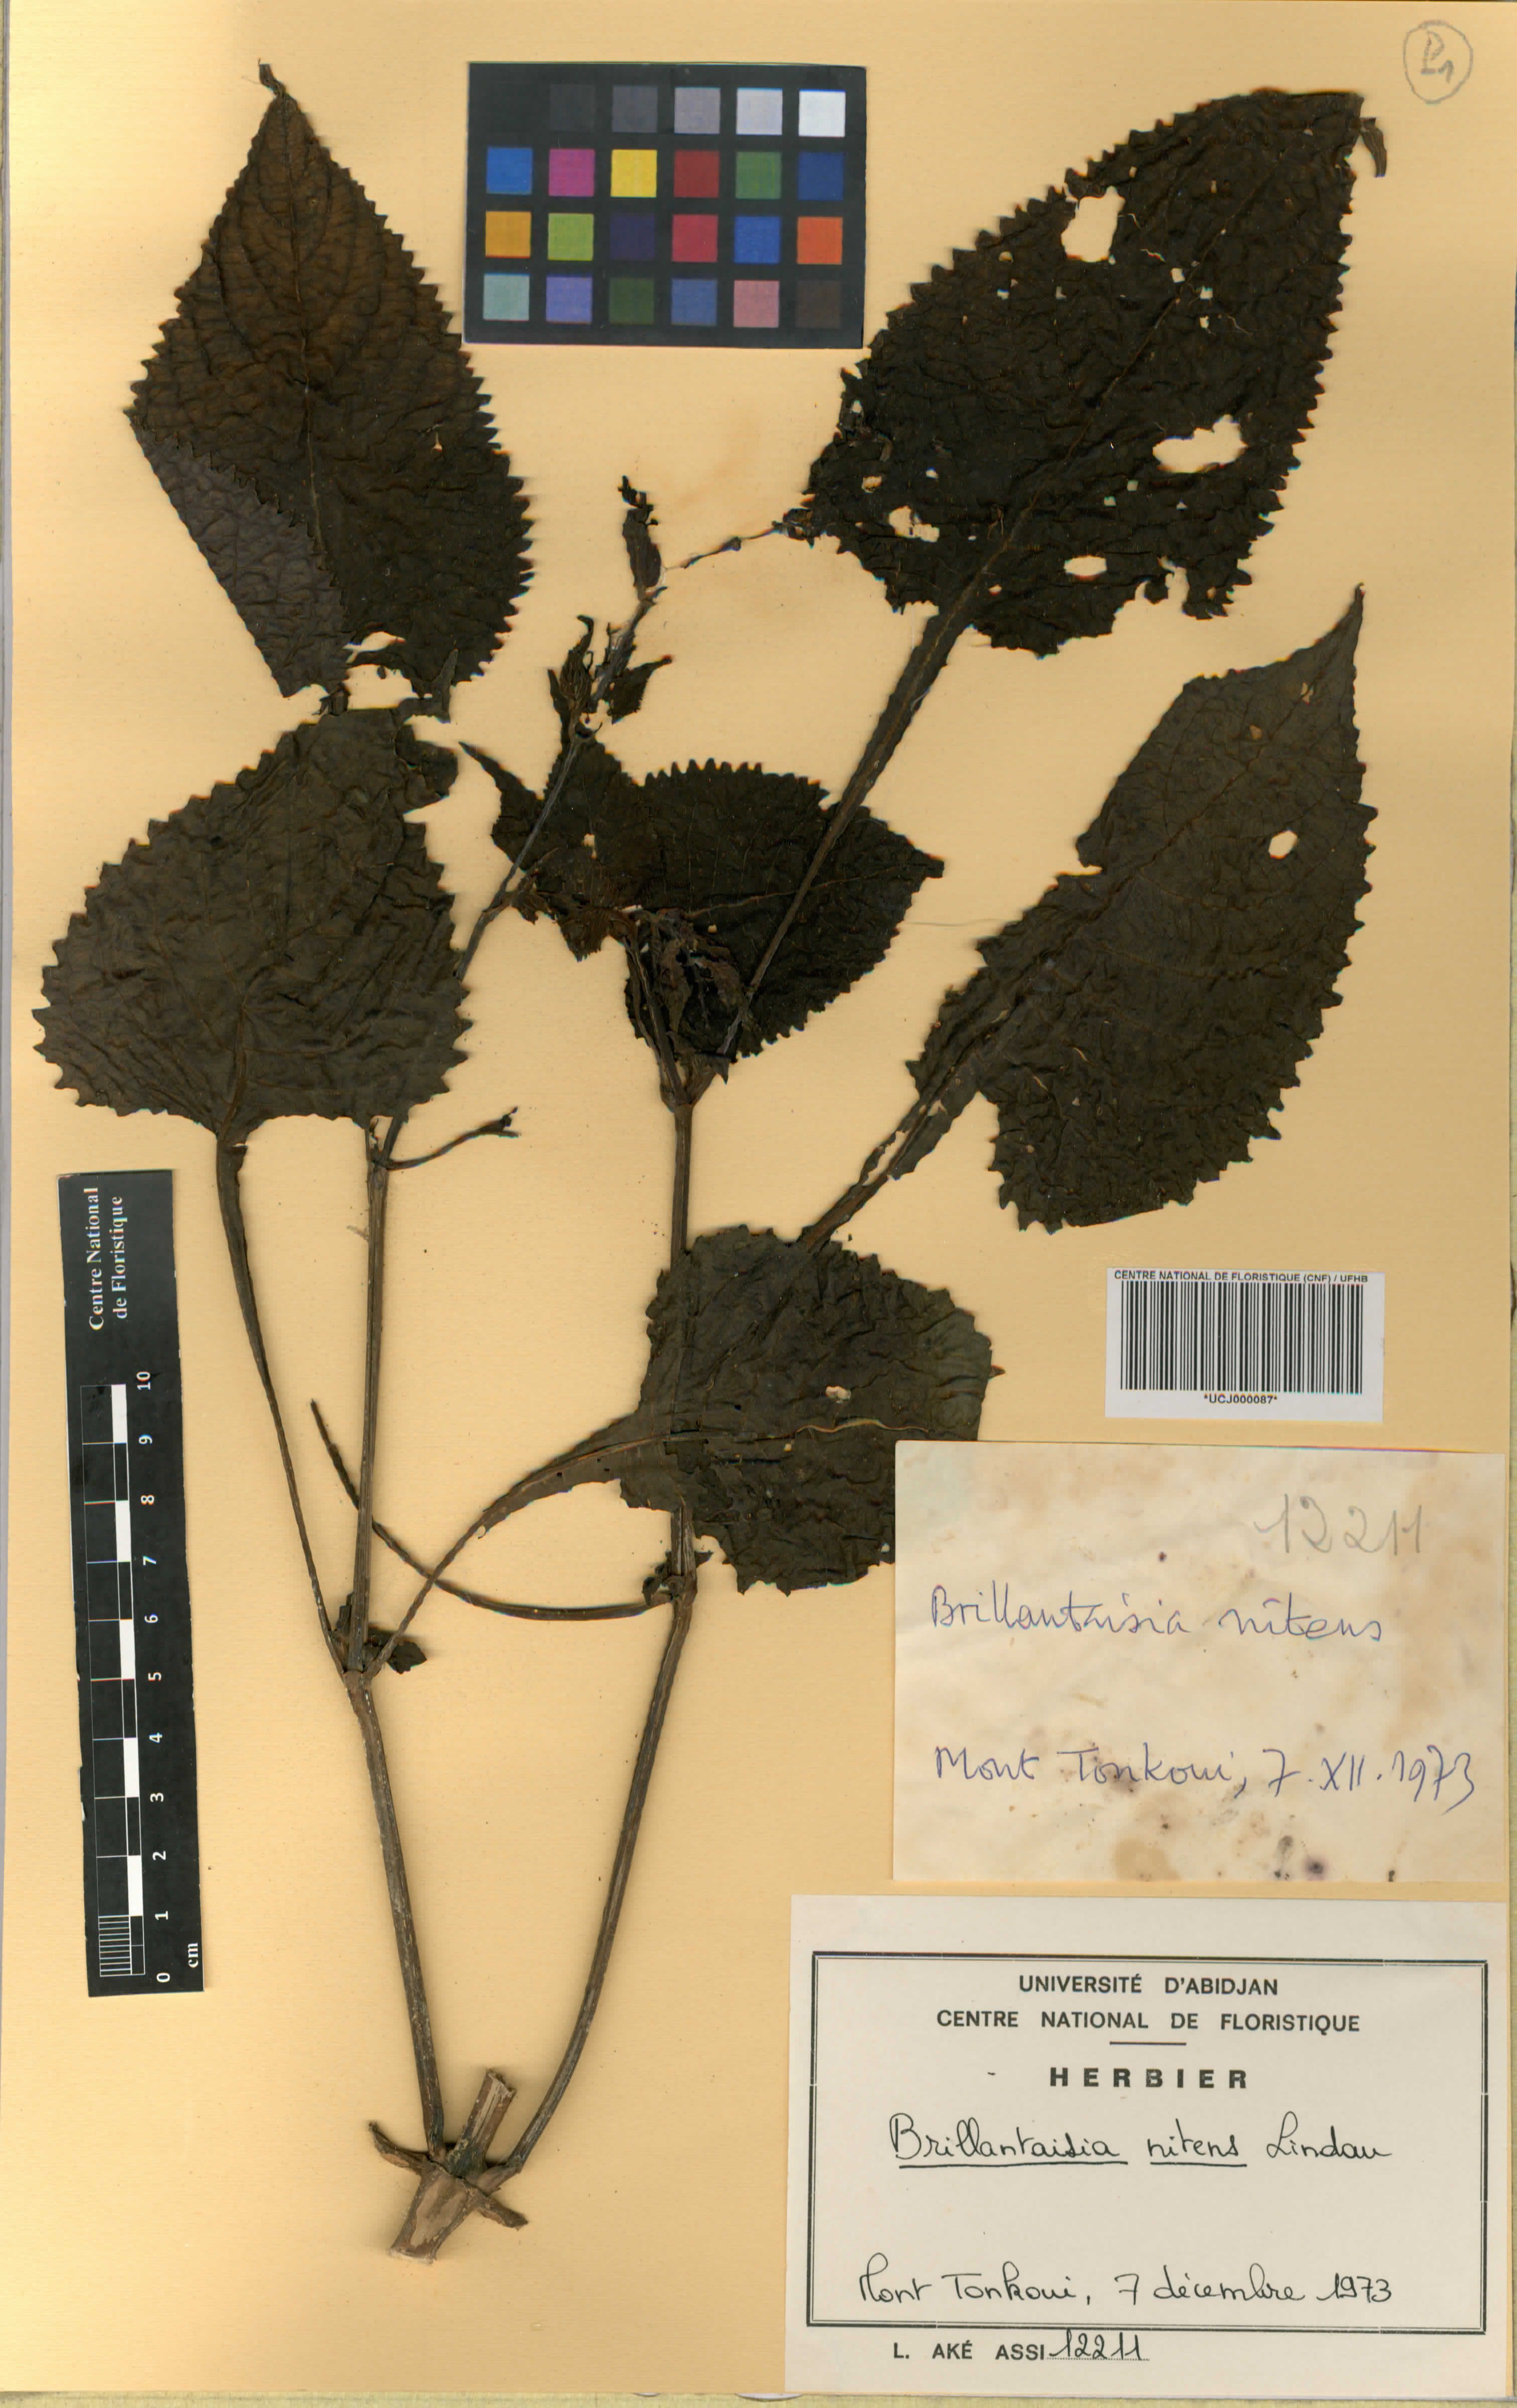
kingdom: Plantae
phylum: Tracheophyta
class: Magnoliopsida
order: Lamiales
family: Acanthaceae
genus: Brillantaisia
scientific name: Brillantaisia owariensis
